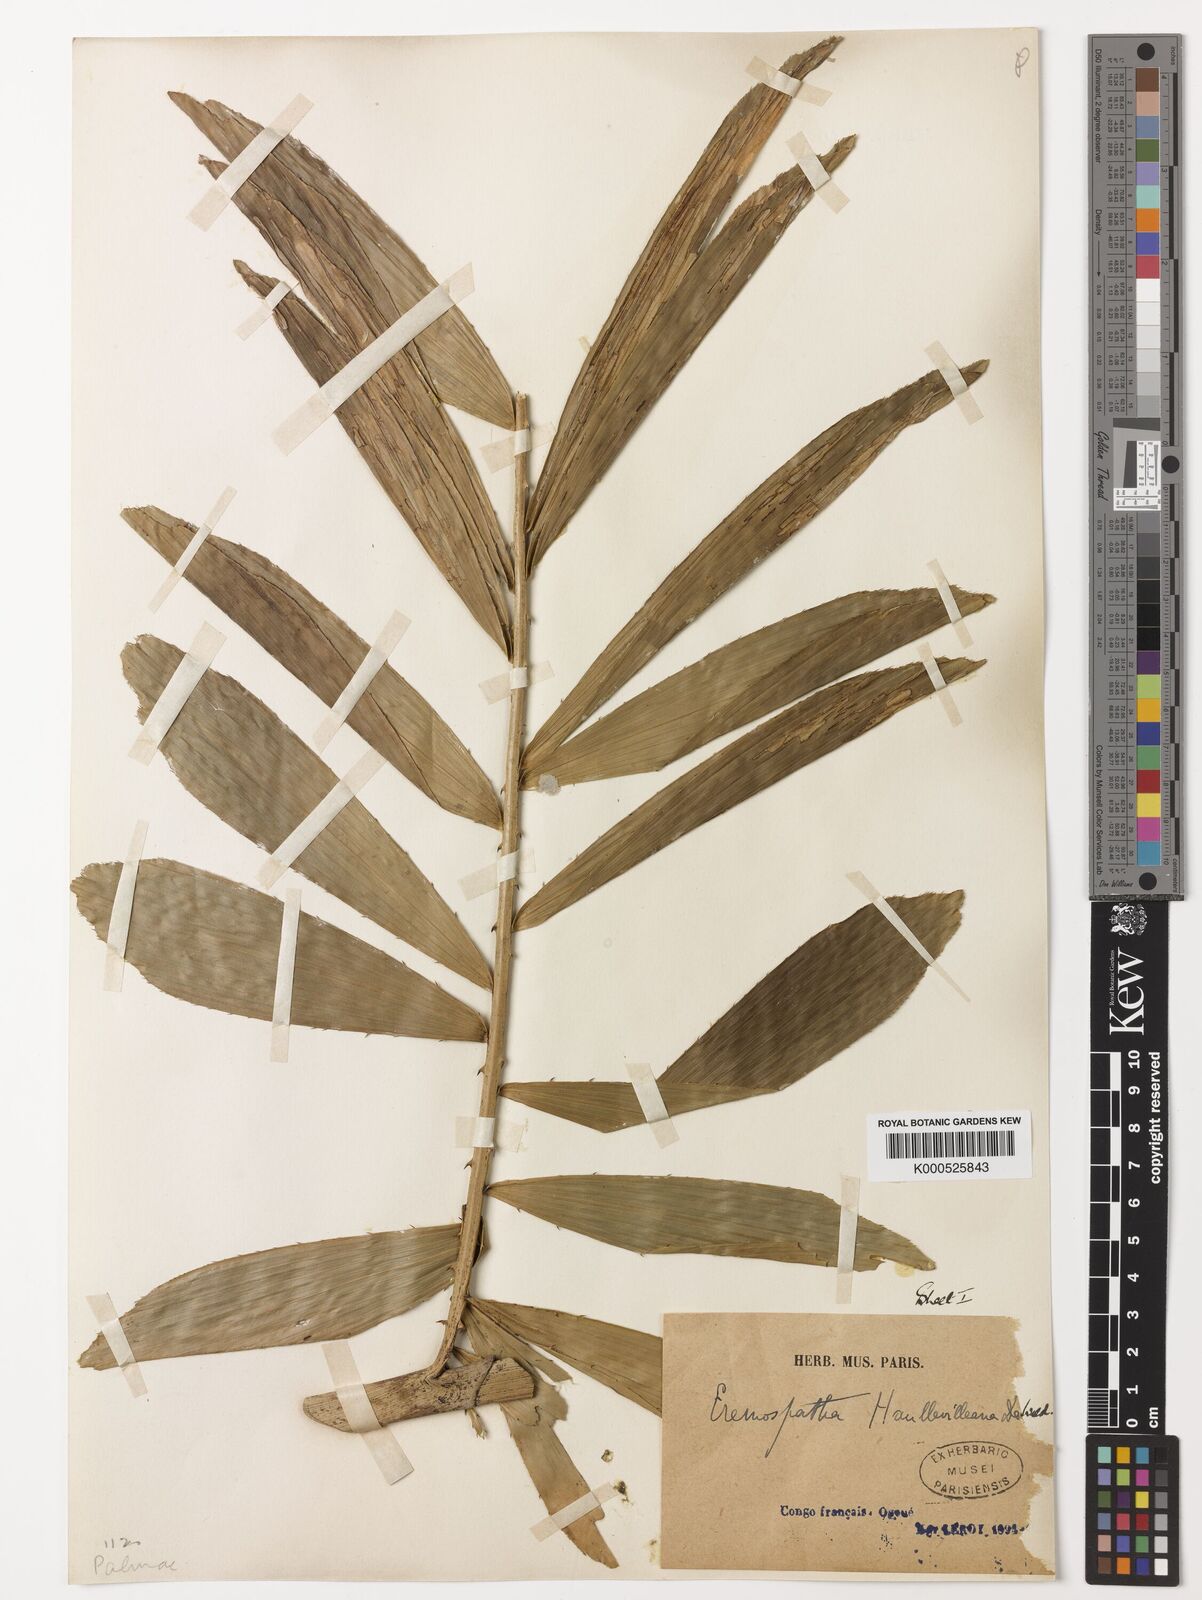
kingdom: Plantae
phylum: Tracheophyta
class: Liliopsida
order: Arecales
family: Arecaceae
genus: Eremospatha
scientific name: Eremospatha haullevilleana
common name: Rattan
